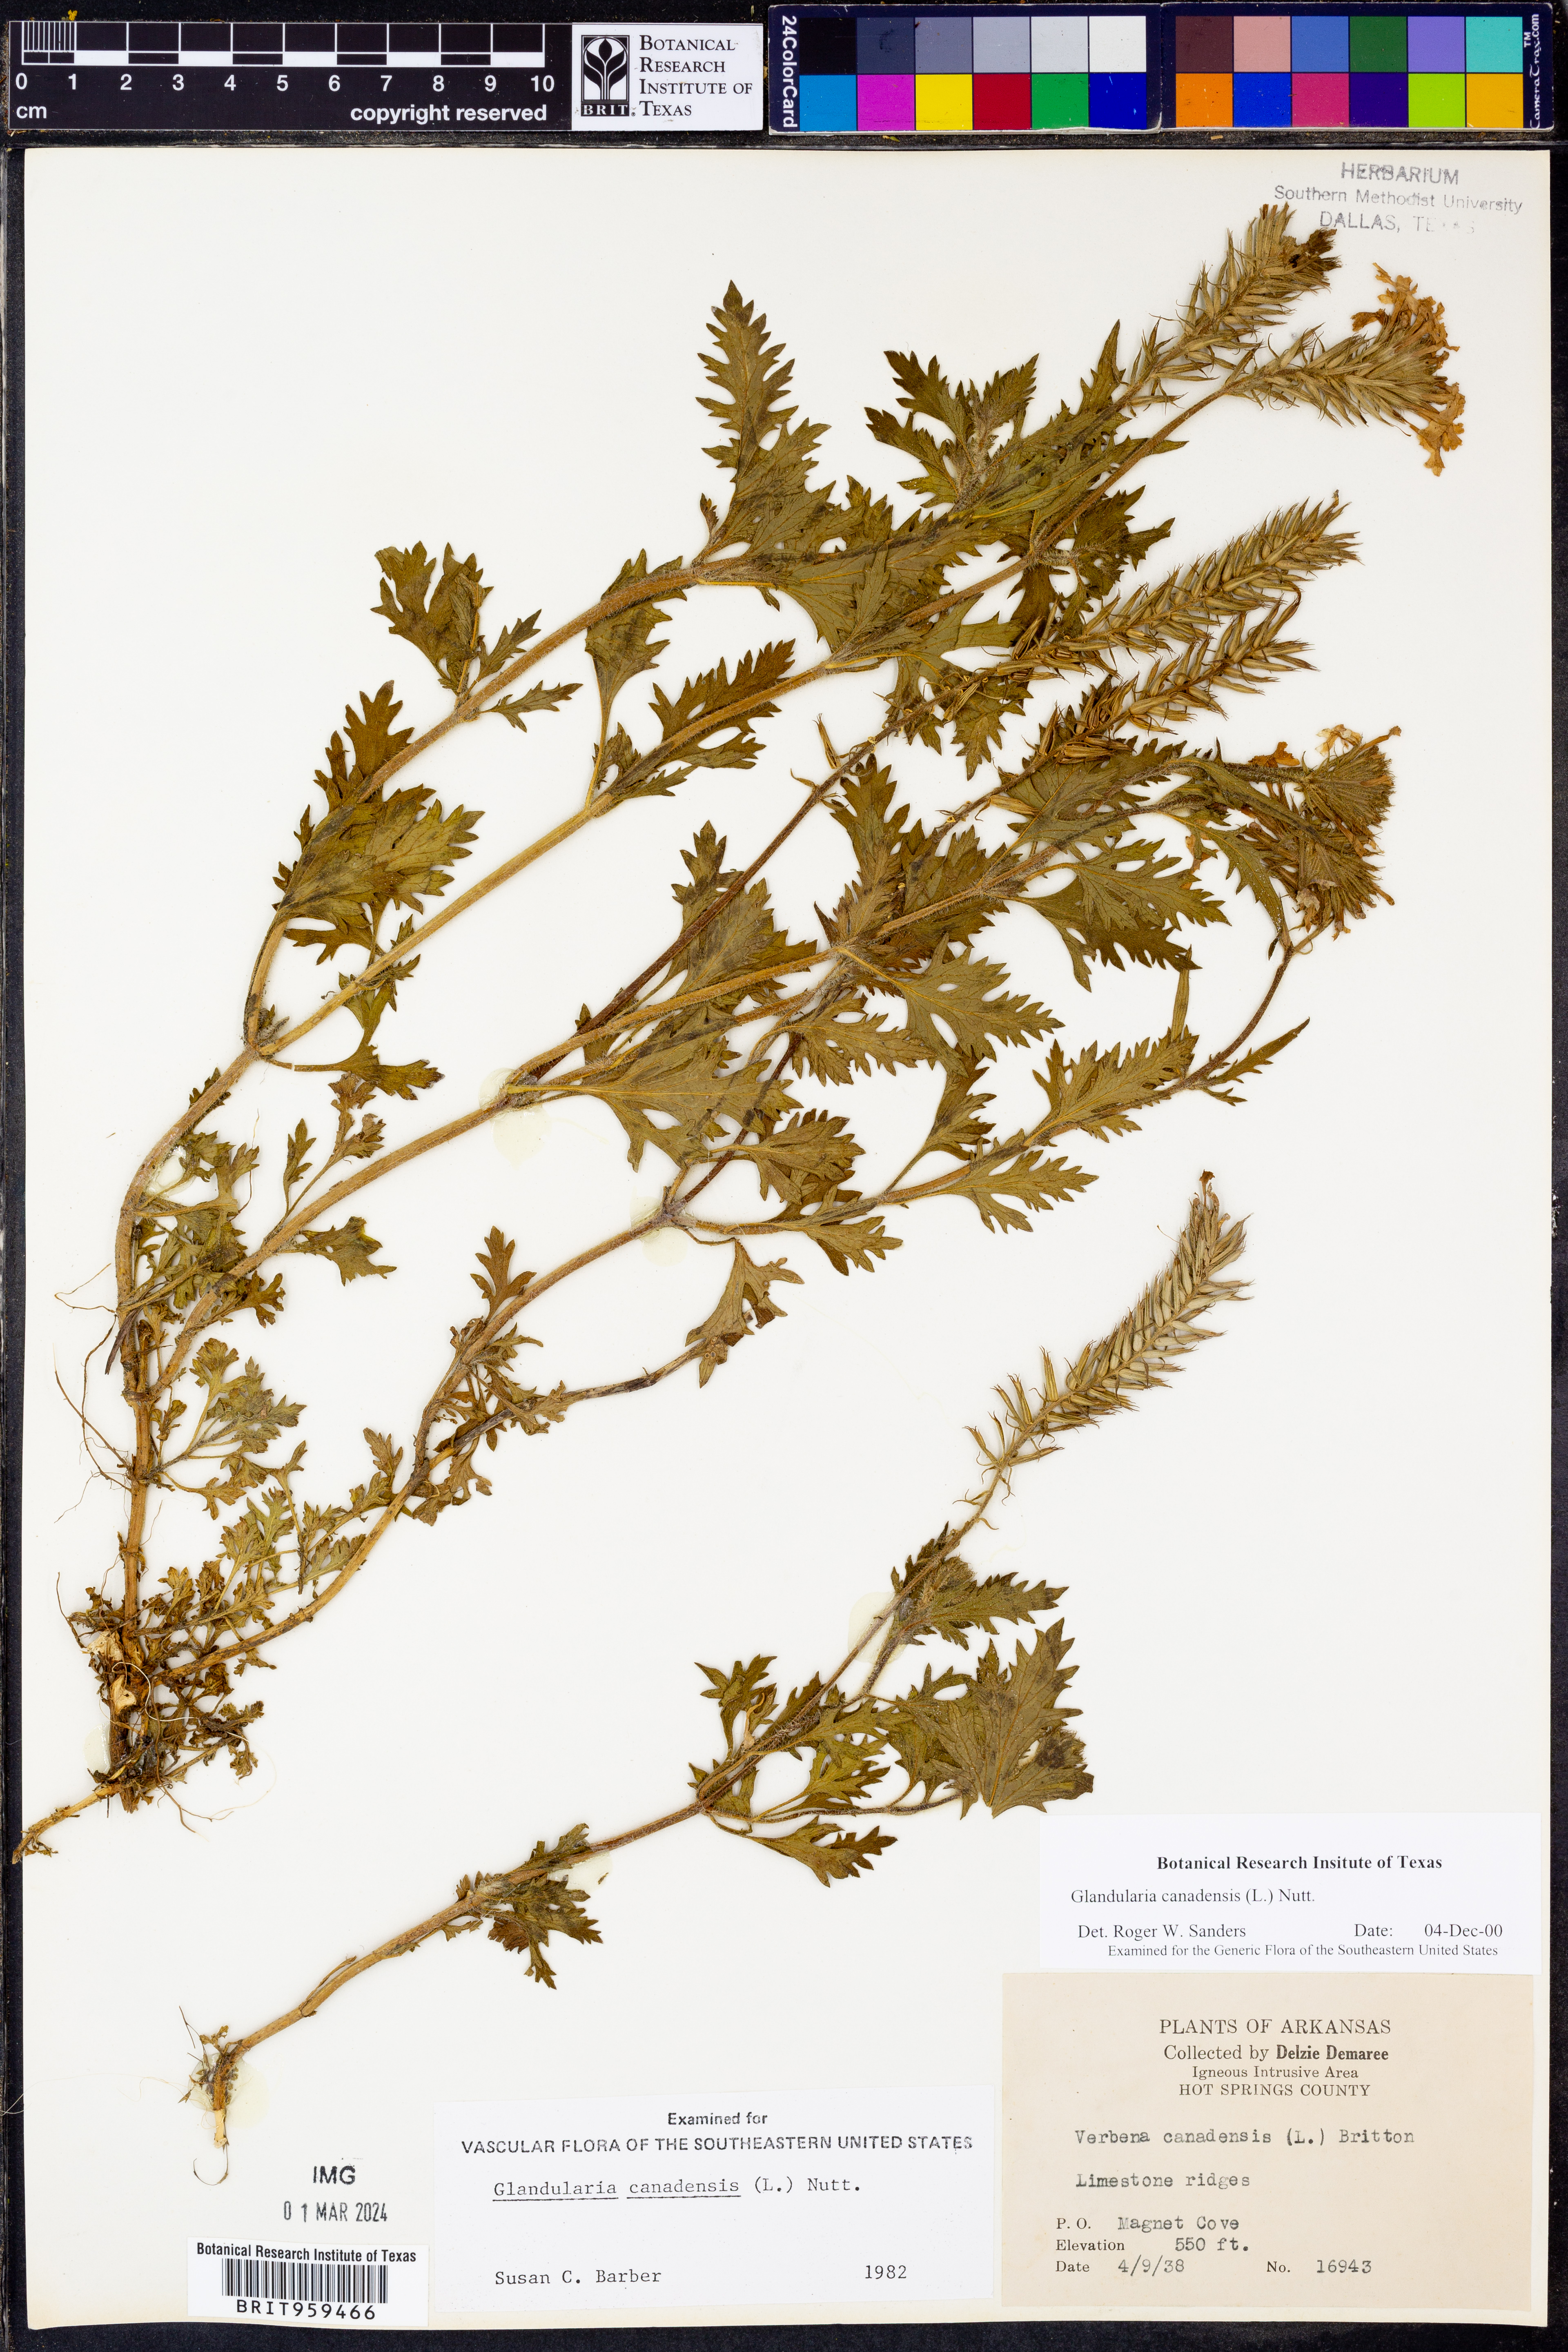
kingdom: Plantae
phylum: Tracheophyta
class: Magnoliopsida
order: Lamiales
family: Verbenaceae
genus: Verbena
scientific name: Verbena canadensis
